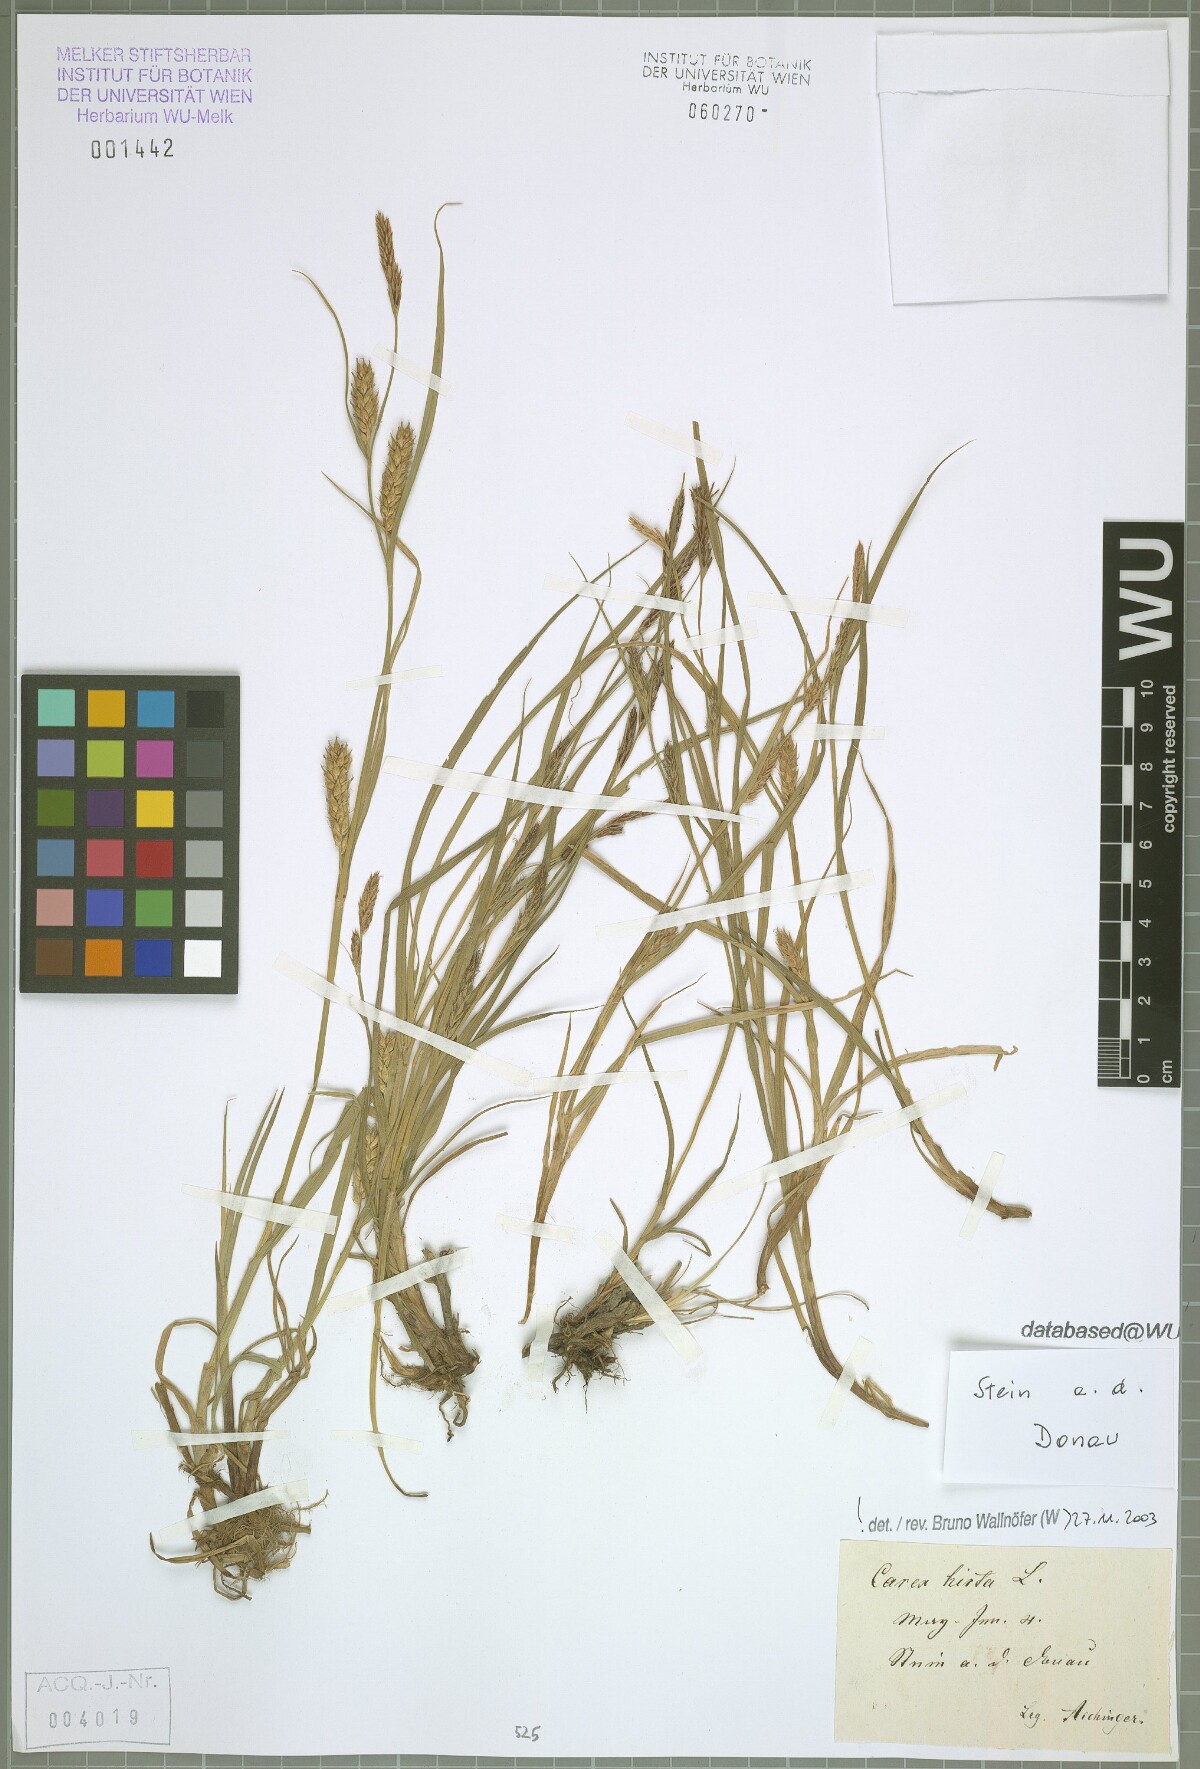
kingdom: Plantae
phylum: Tracheophyta
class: Liliopsida
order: Poales
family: Cyperaceae
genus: Carex
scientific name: Carex hirta
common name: Hairy sedge
